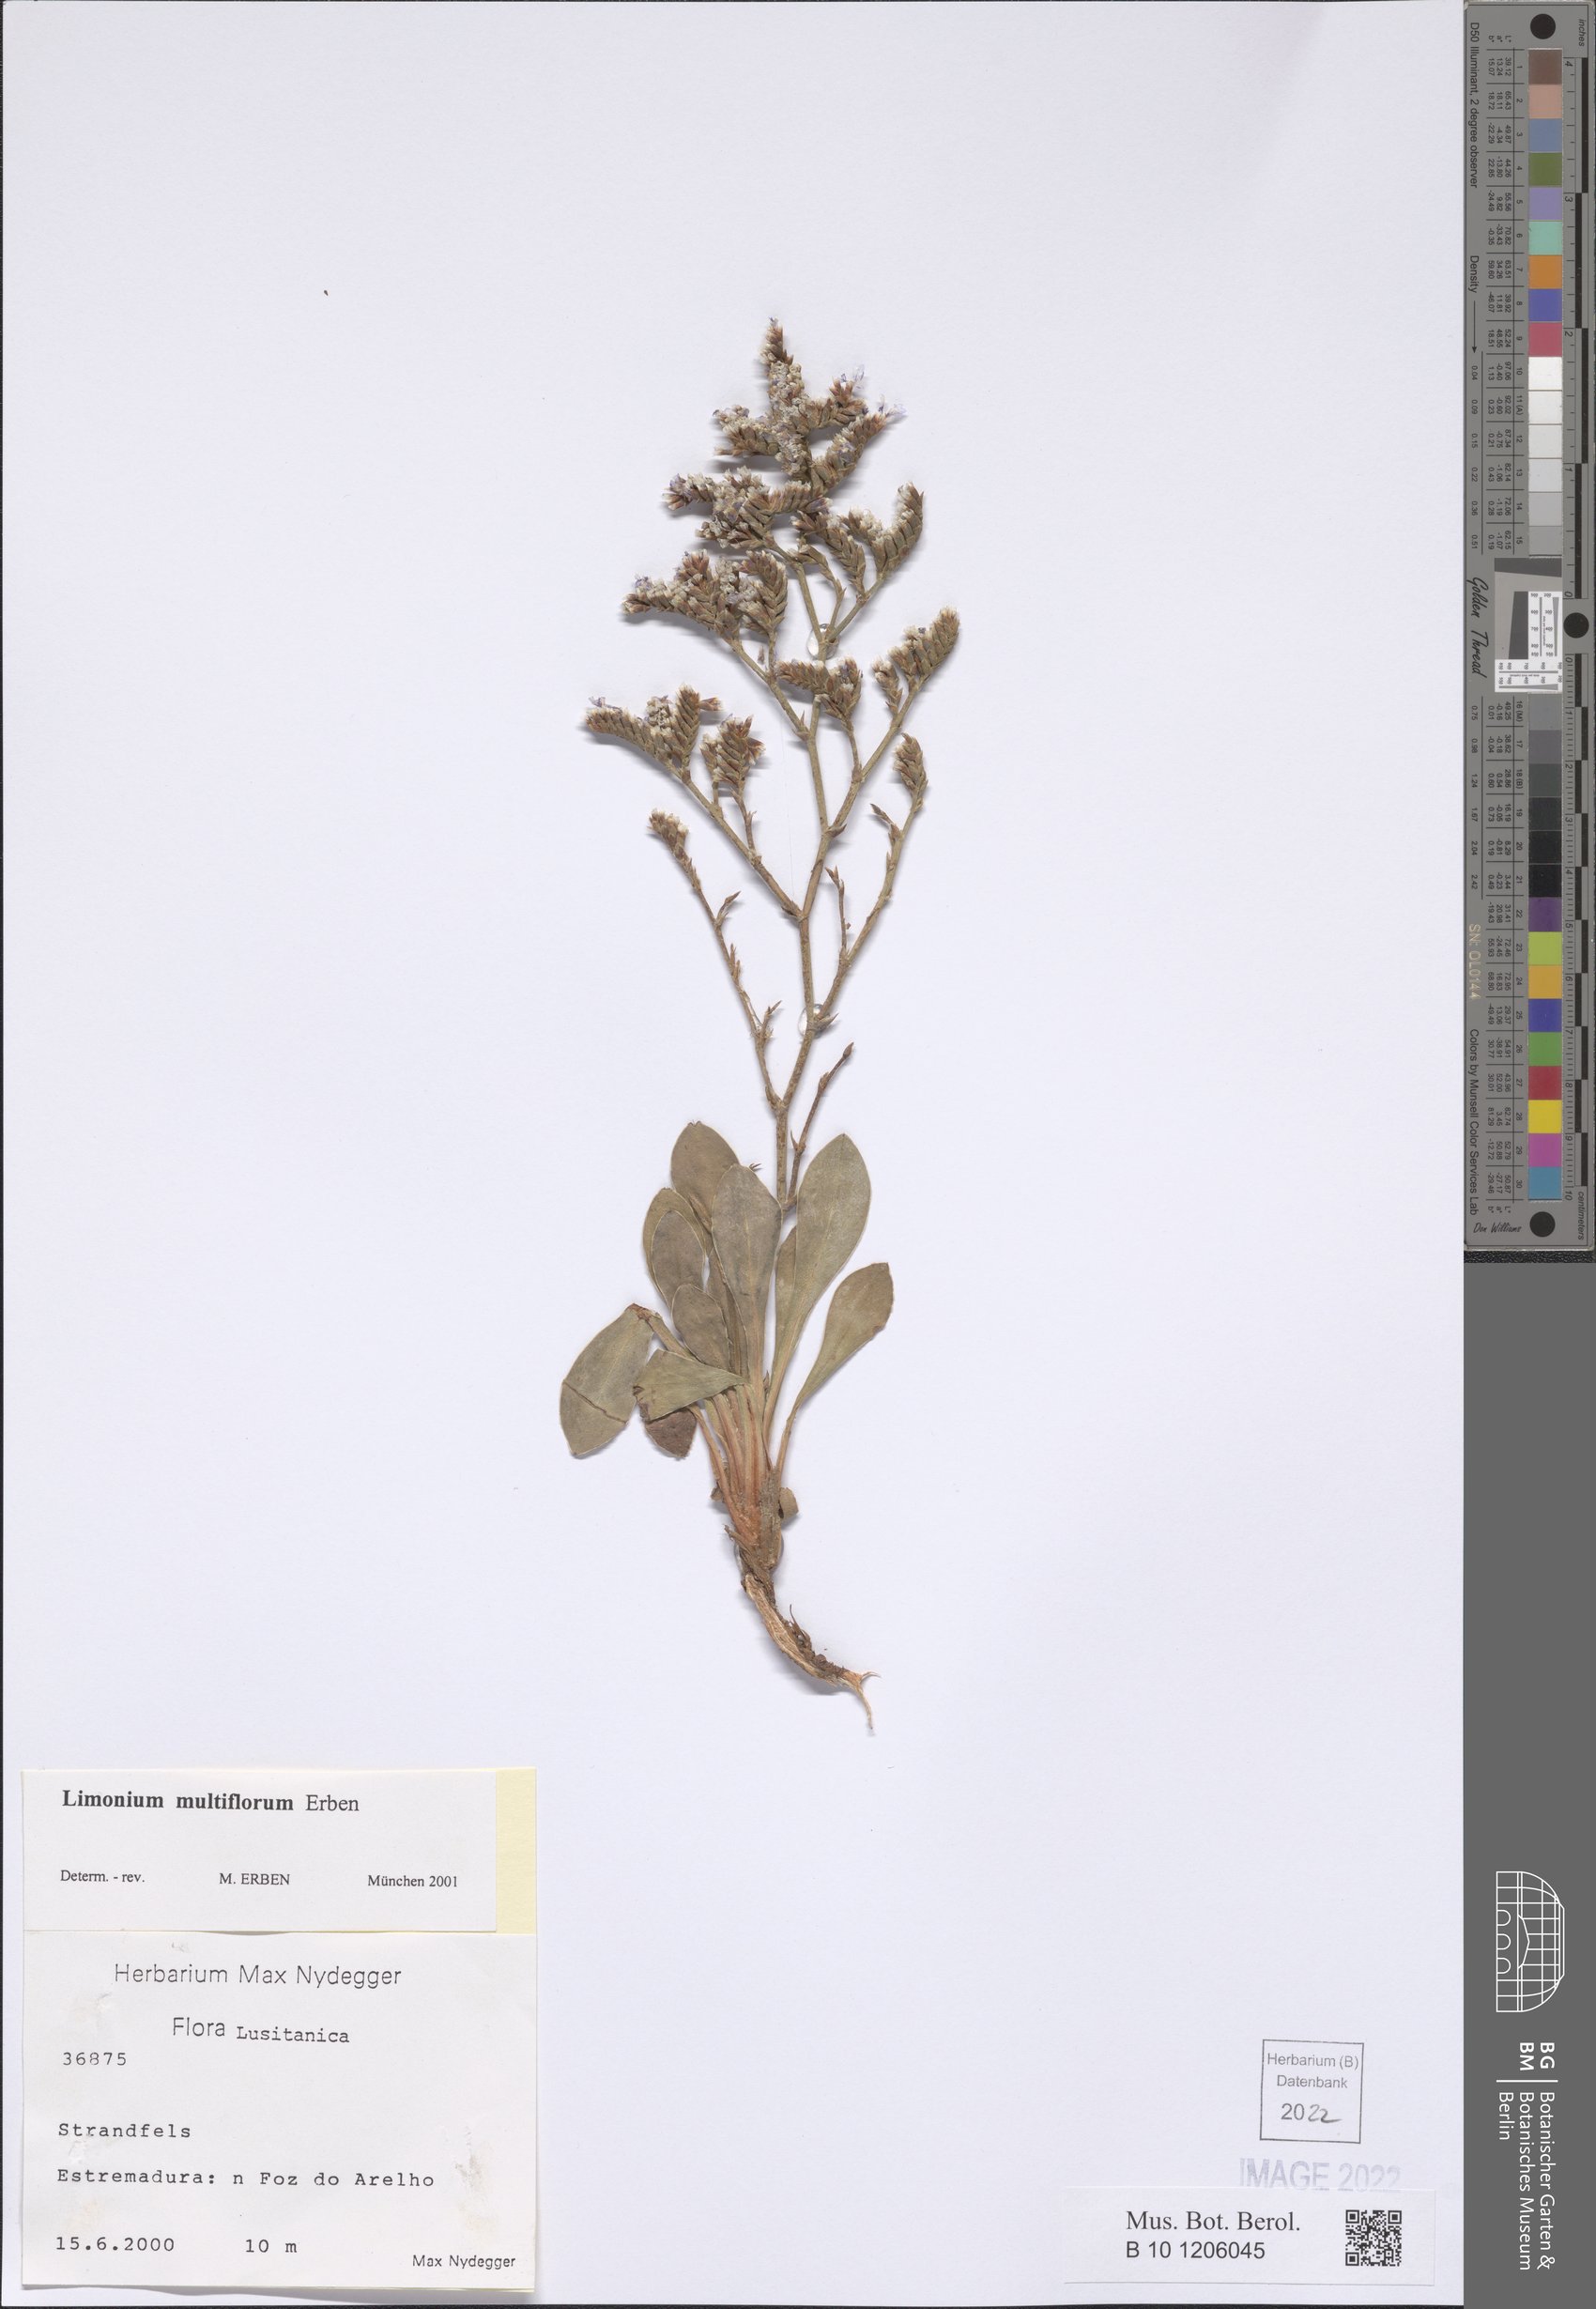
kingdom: Plantae
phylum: Tracheophyta
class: Magnoliopsida
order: Caryophyllales
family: Plumbaginaceae
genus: Limonium
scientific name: Limonium multiflorum
